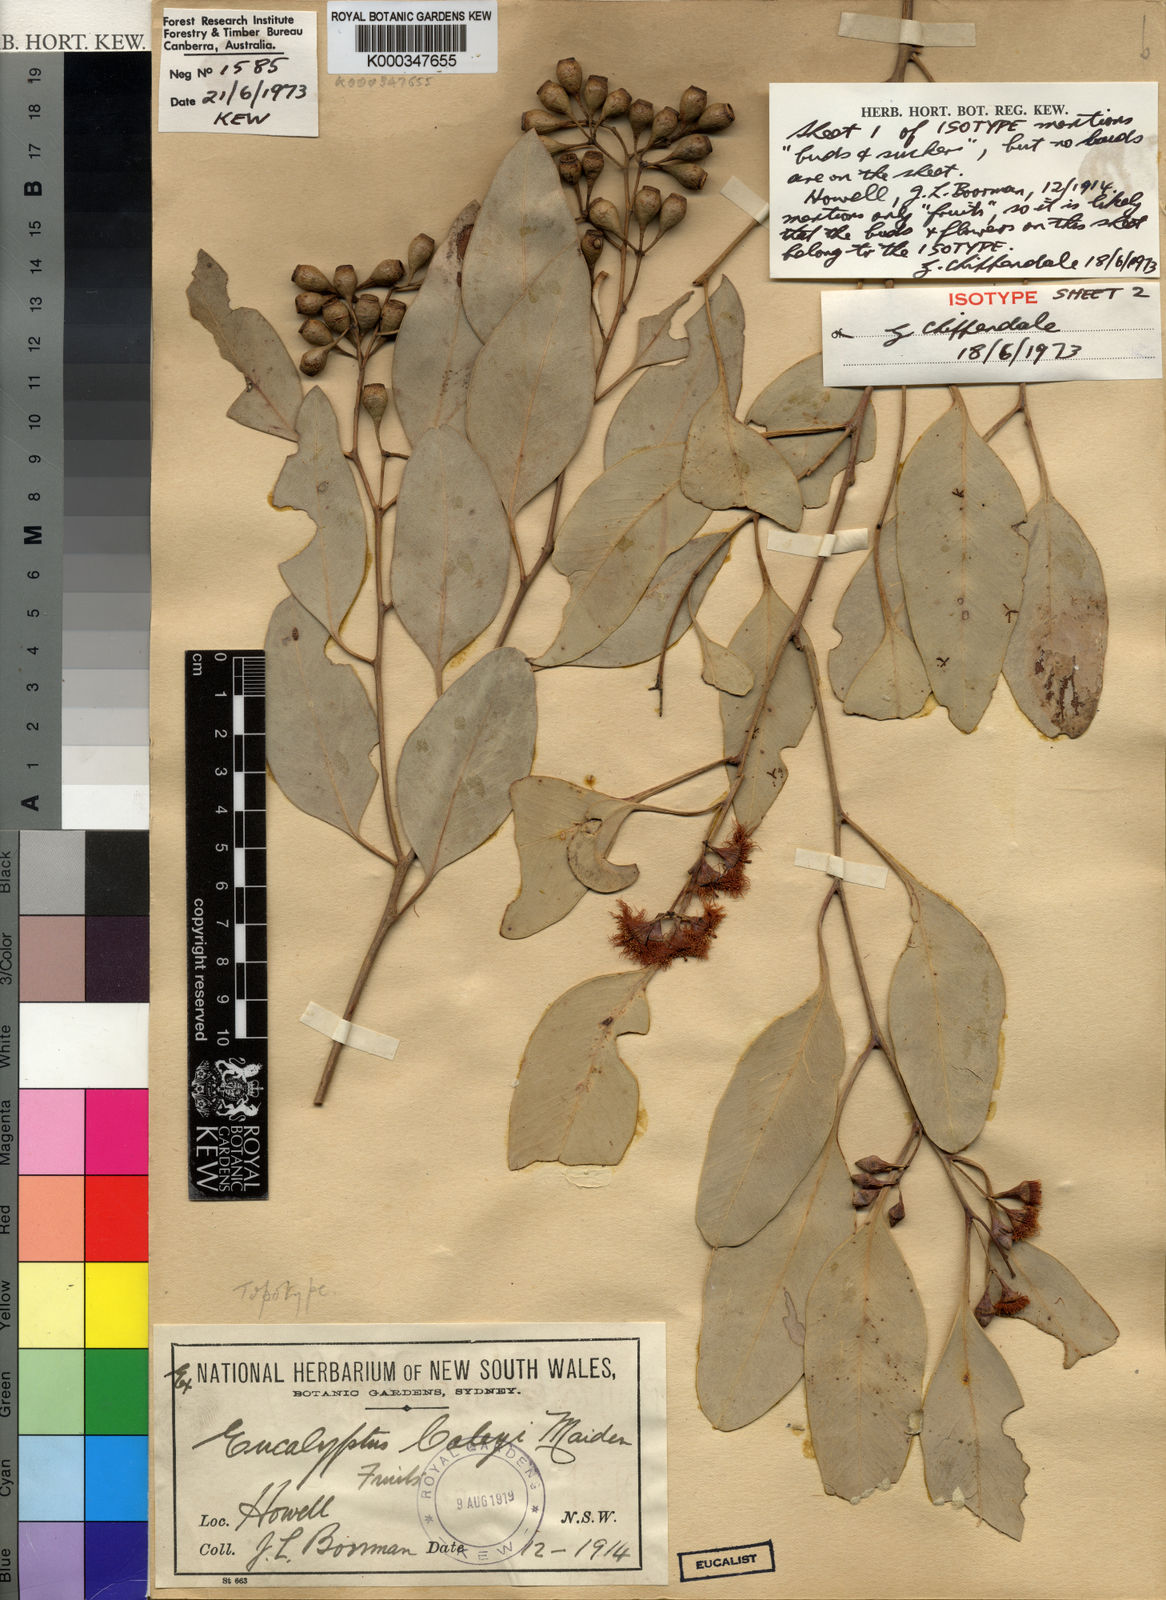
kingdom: Plantae
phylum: Tracheophyta
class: Magnoliopsida
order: Myrtales
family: Myrtaceae
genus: Eucalyptus
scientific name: Eucalyptus caleyi
